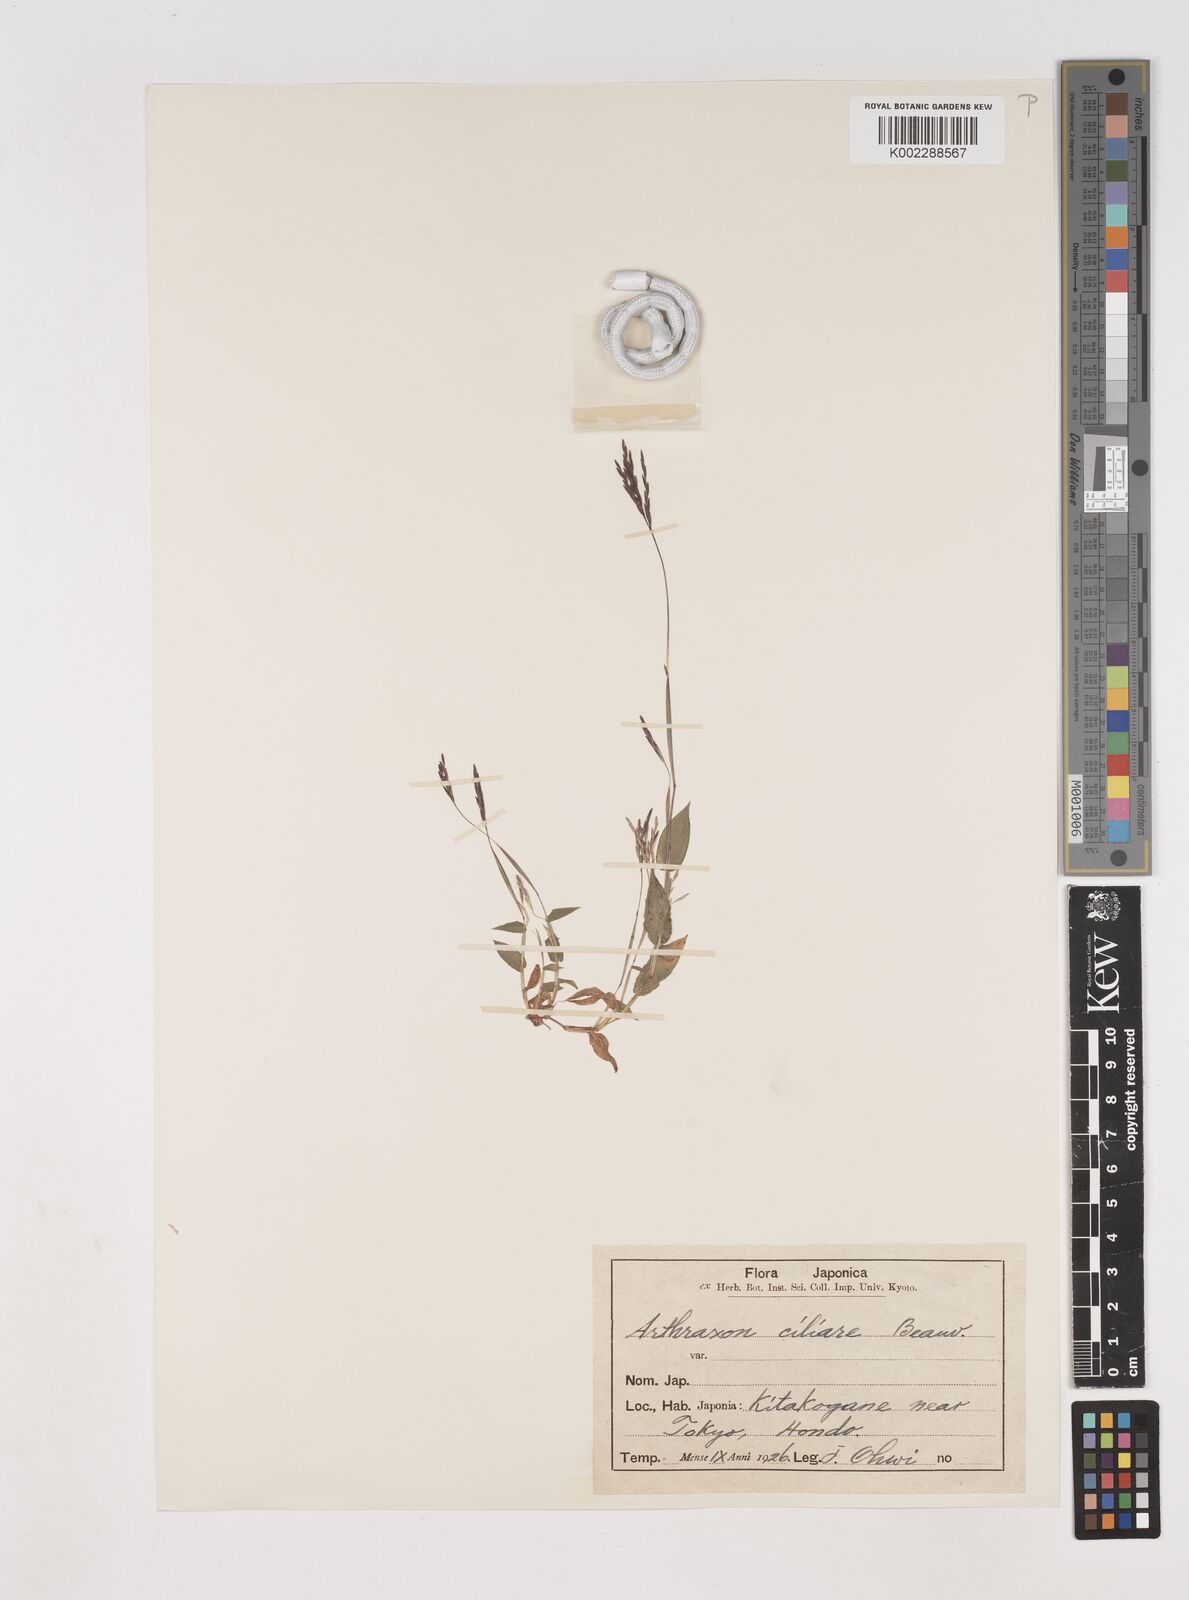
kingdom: Plantae
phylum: Tracheophyta
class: Liliopsida
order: Poales
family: Poaceae
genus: Arthraxon
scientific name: Arthraxon hispidus
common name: Small carpgrass
